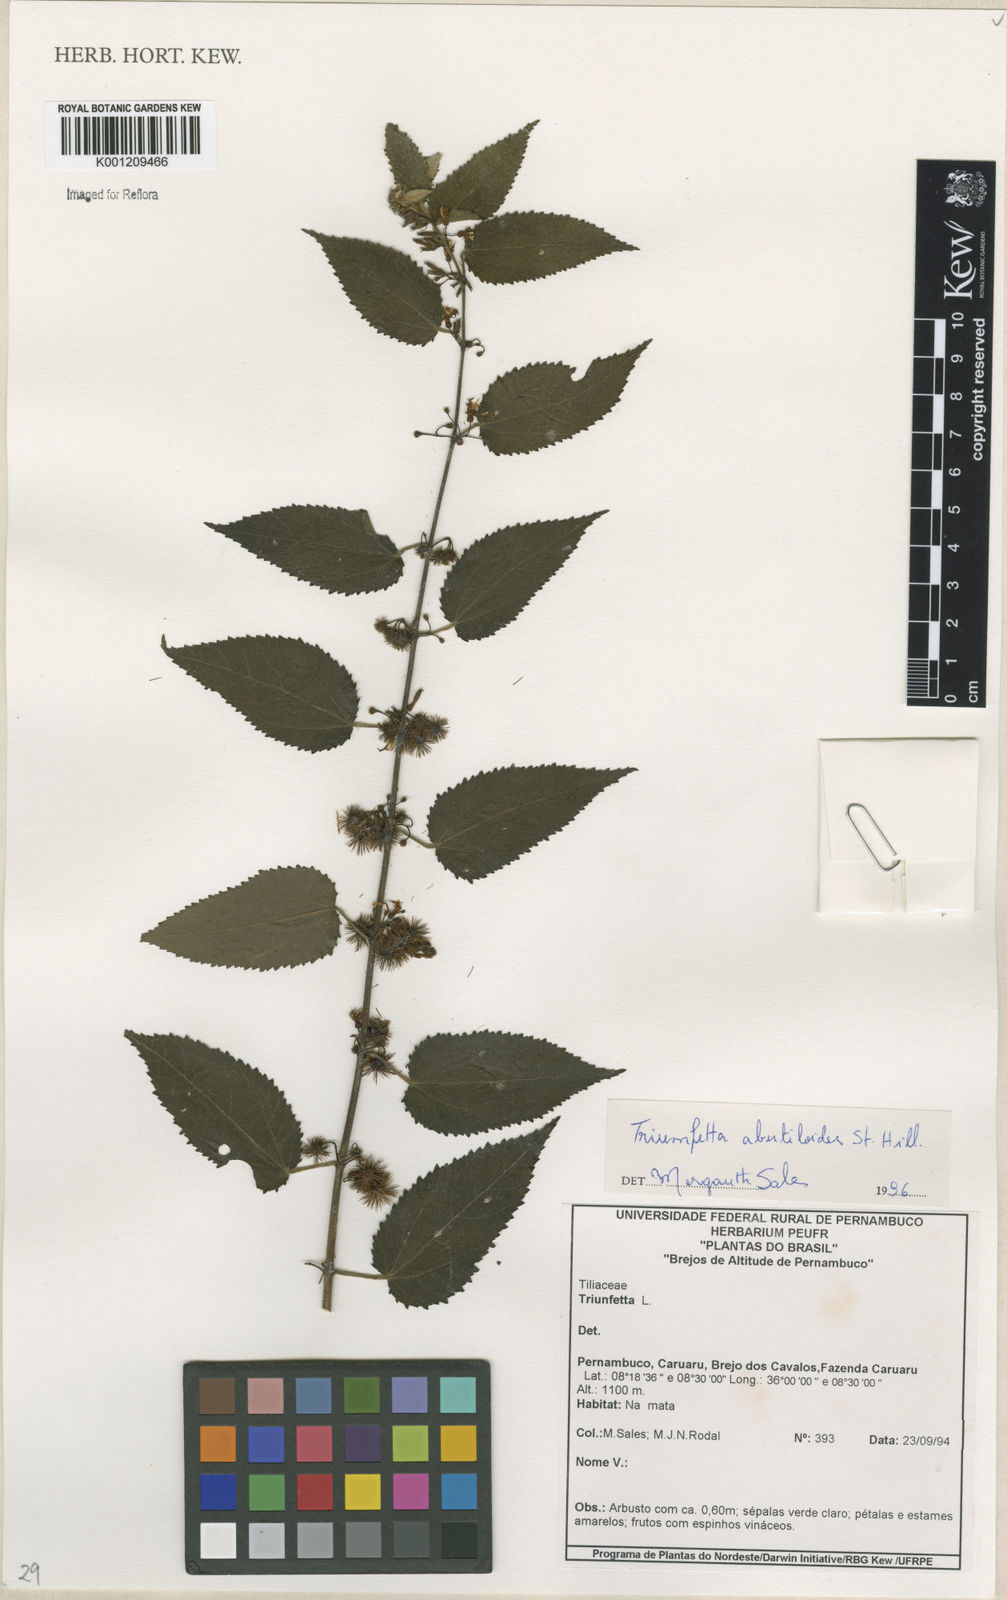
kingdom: Plantae
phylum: Tracheophyta
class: Magnoliopsida
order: Malvales
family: Malvaceae
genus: Triumfetta
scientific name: Triumfetta abutiloides
